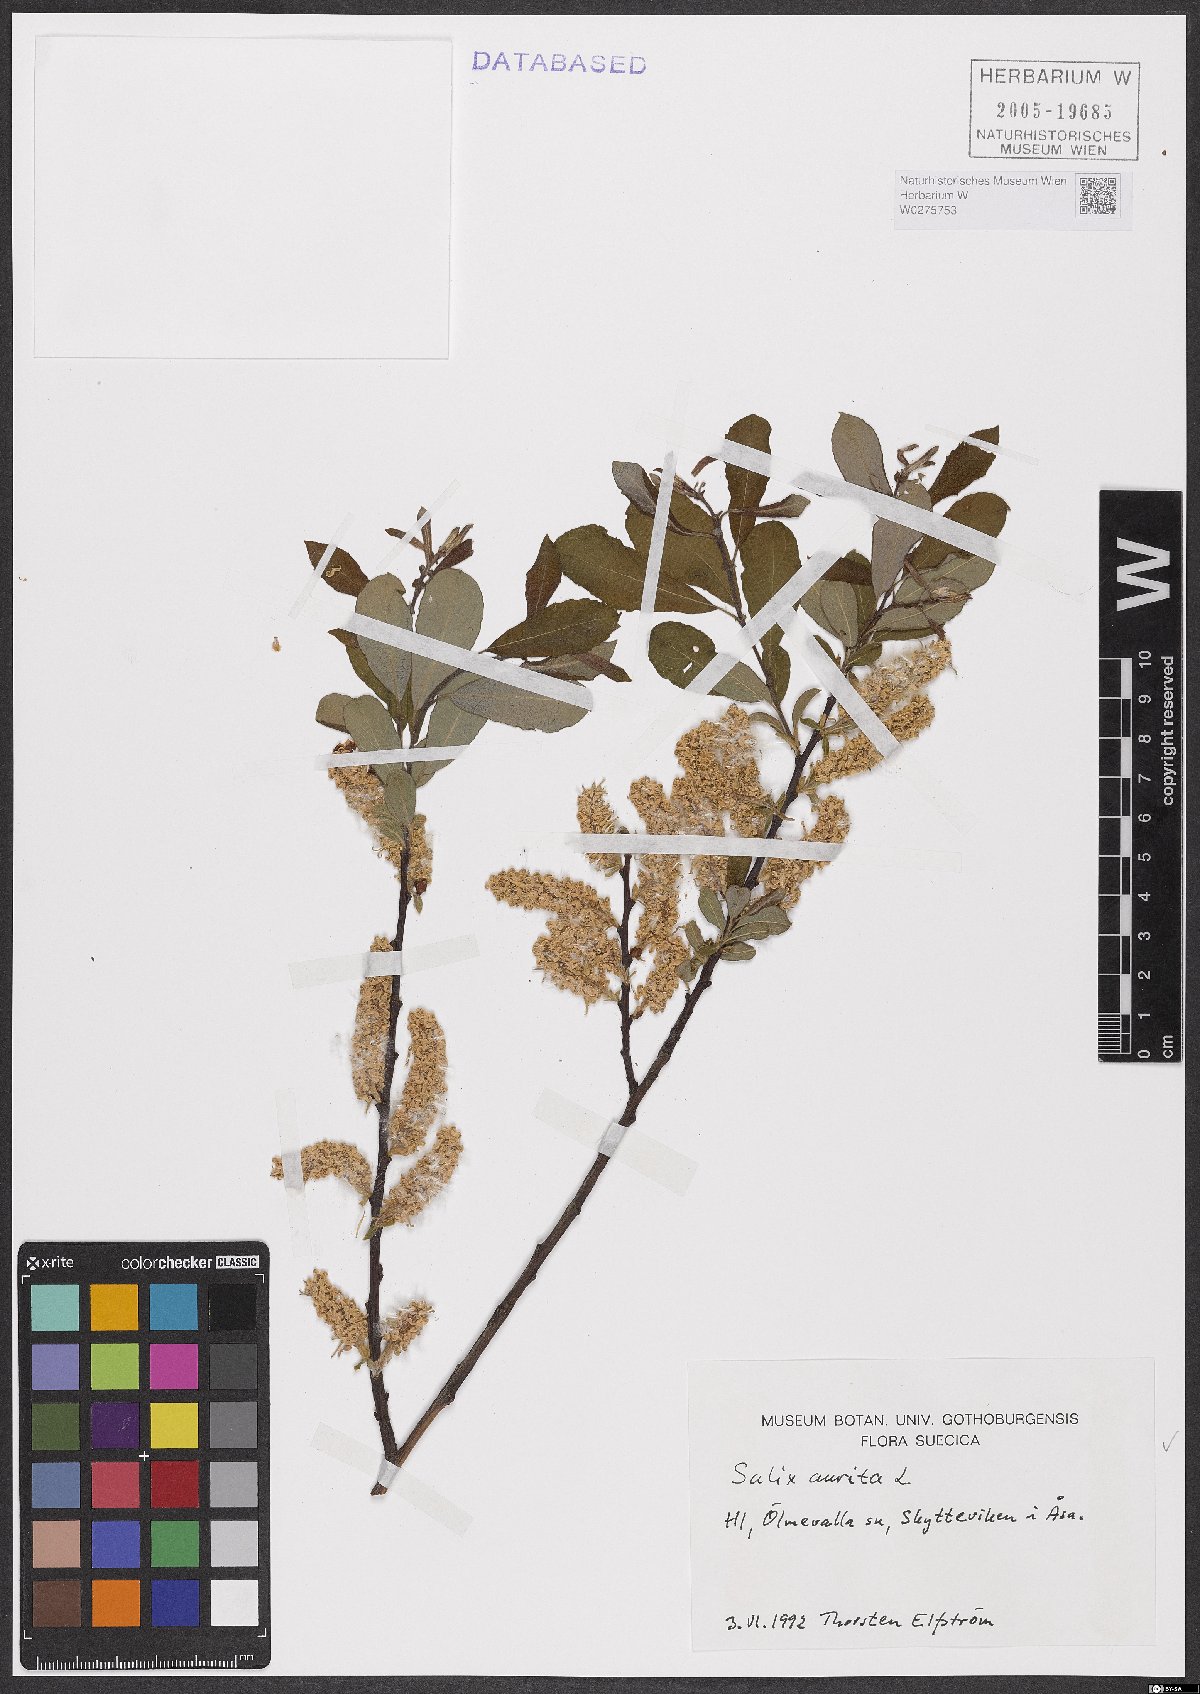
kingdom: Plantae
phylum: Tracheophyta
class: Magnoliopsida
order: Malpighiales
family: Salicaceae
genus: Salix
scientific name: Salix aurita
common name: Eared willow
